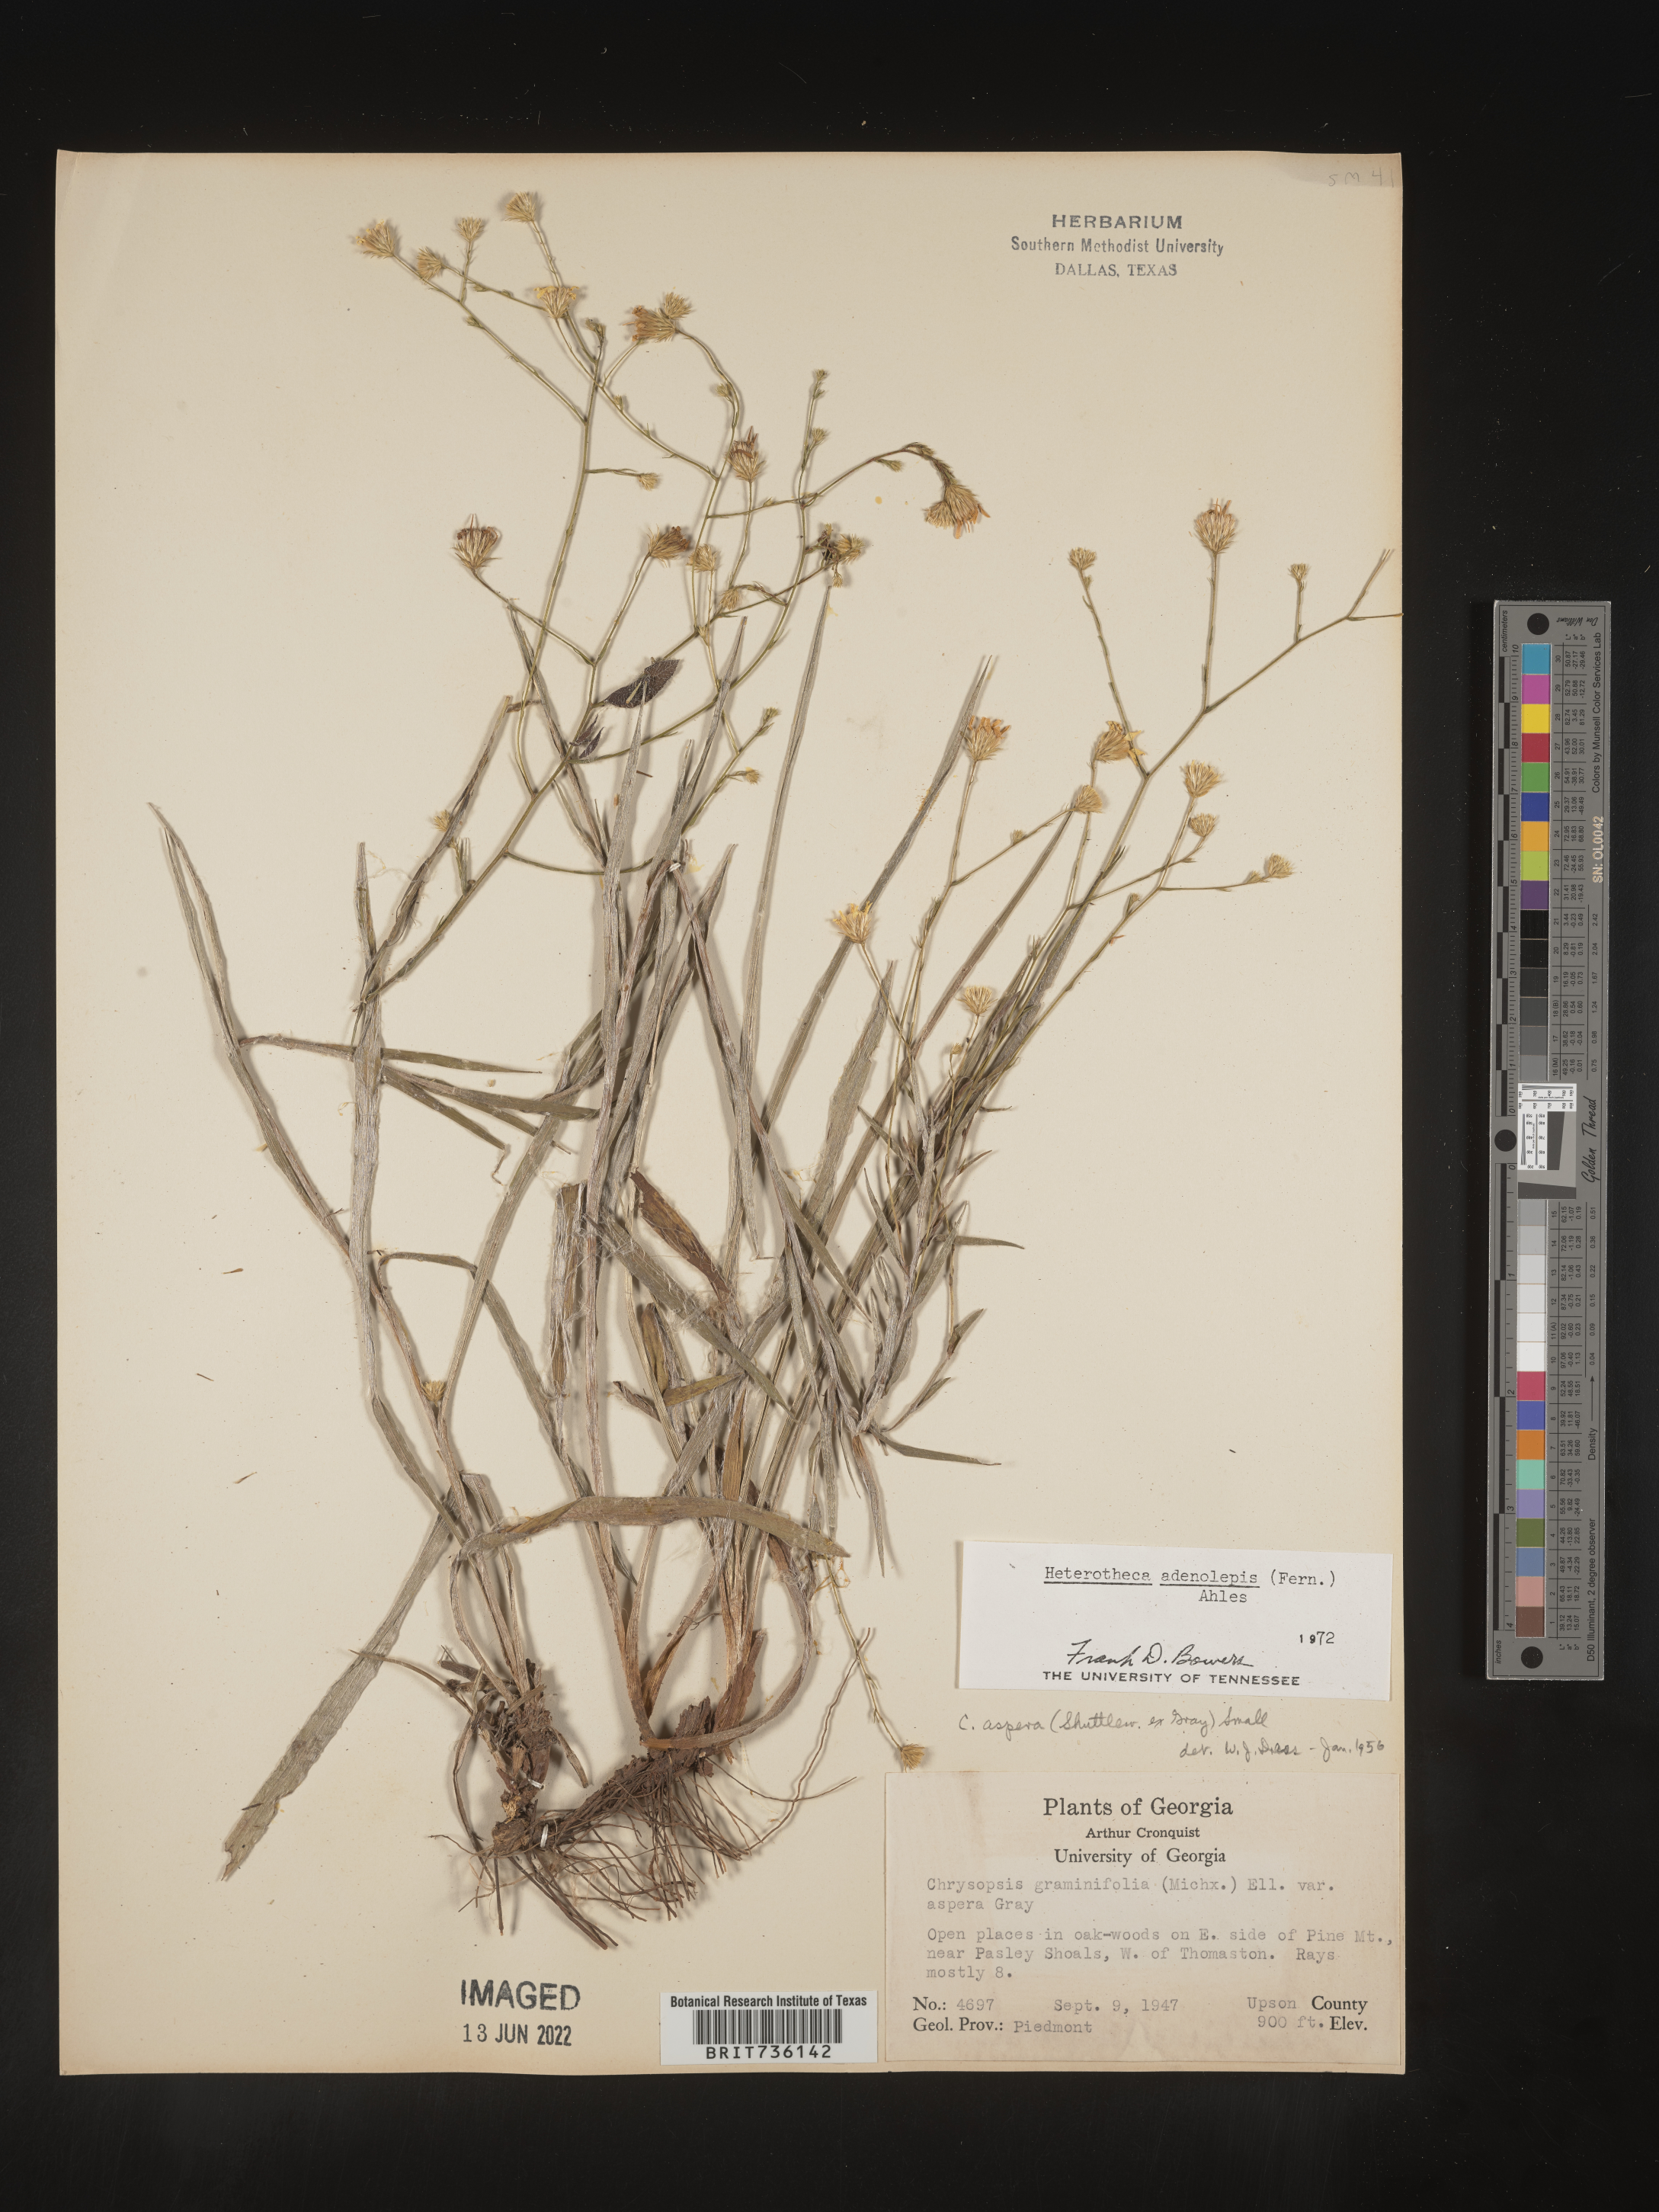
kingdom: Plantae
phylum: Tracheophyta
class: Magnoliopsida
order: Asterales
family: Asteraceae
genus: Pityopsis
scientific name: Pityopsis aspera
